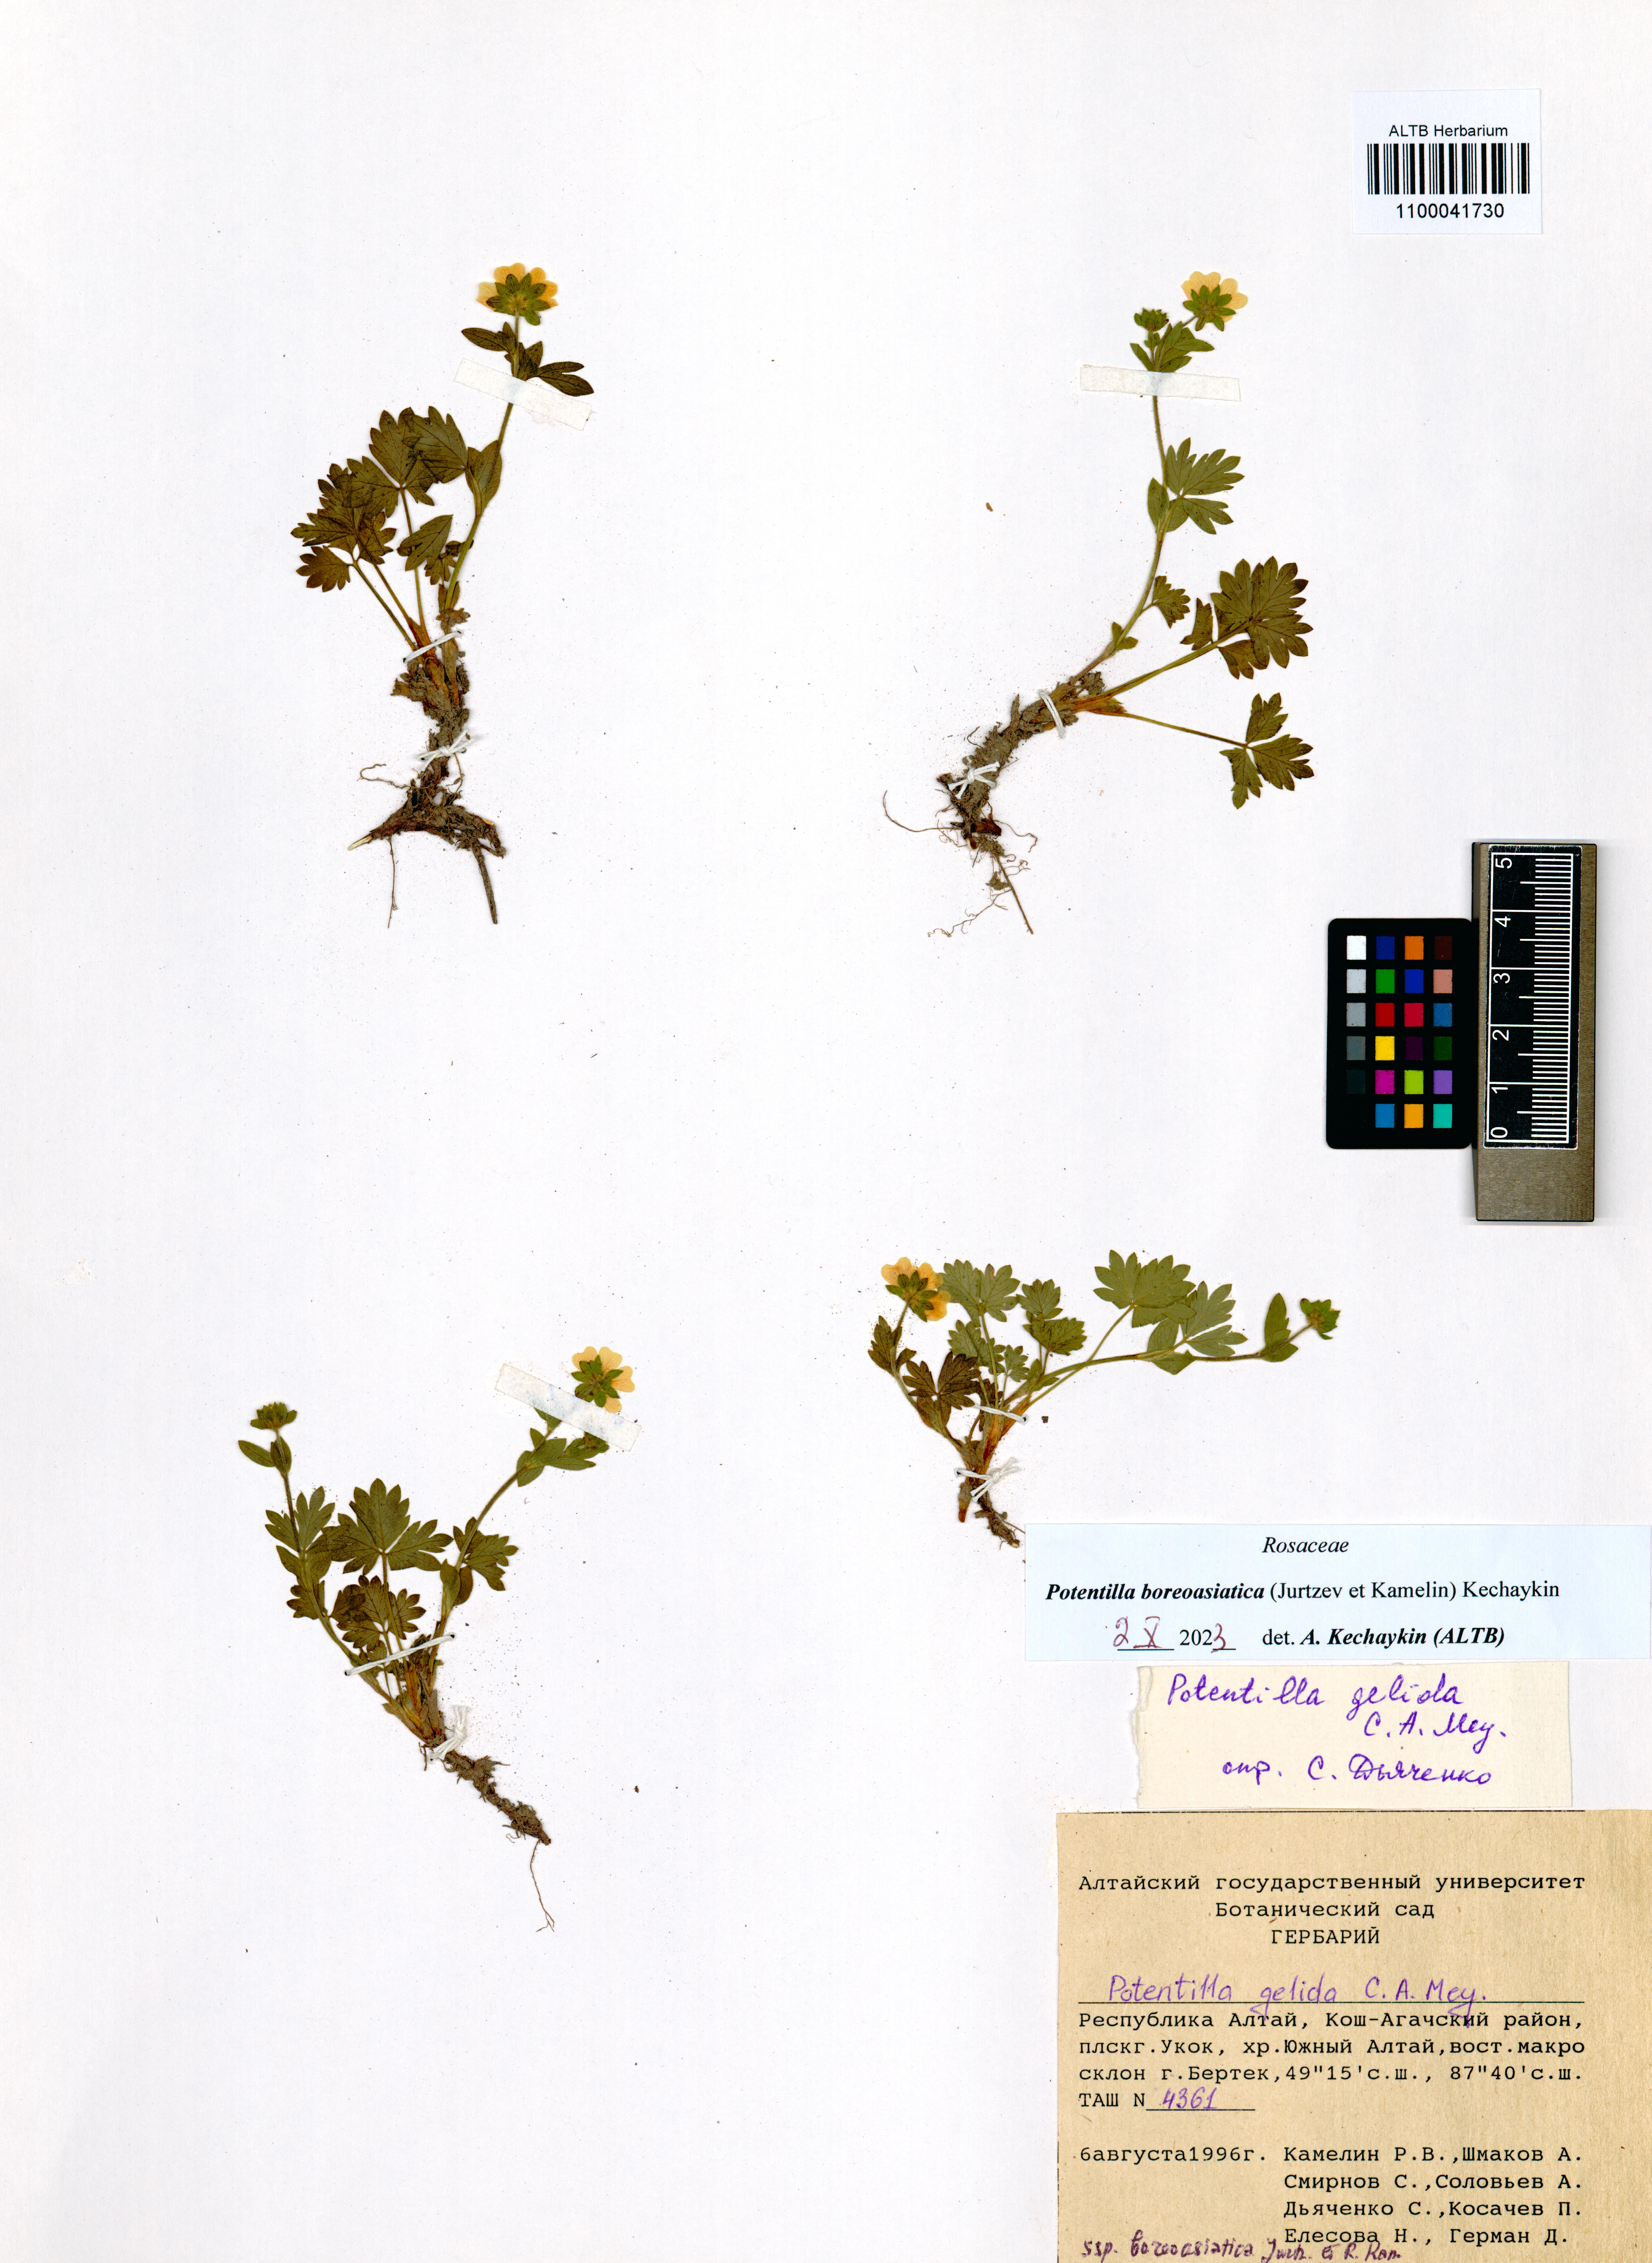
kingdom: Plantae
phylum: Tracheophyta
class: Magnoliopsida
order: Rosales
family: Rosaceae
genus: Potentilla
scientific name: Potentilla
